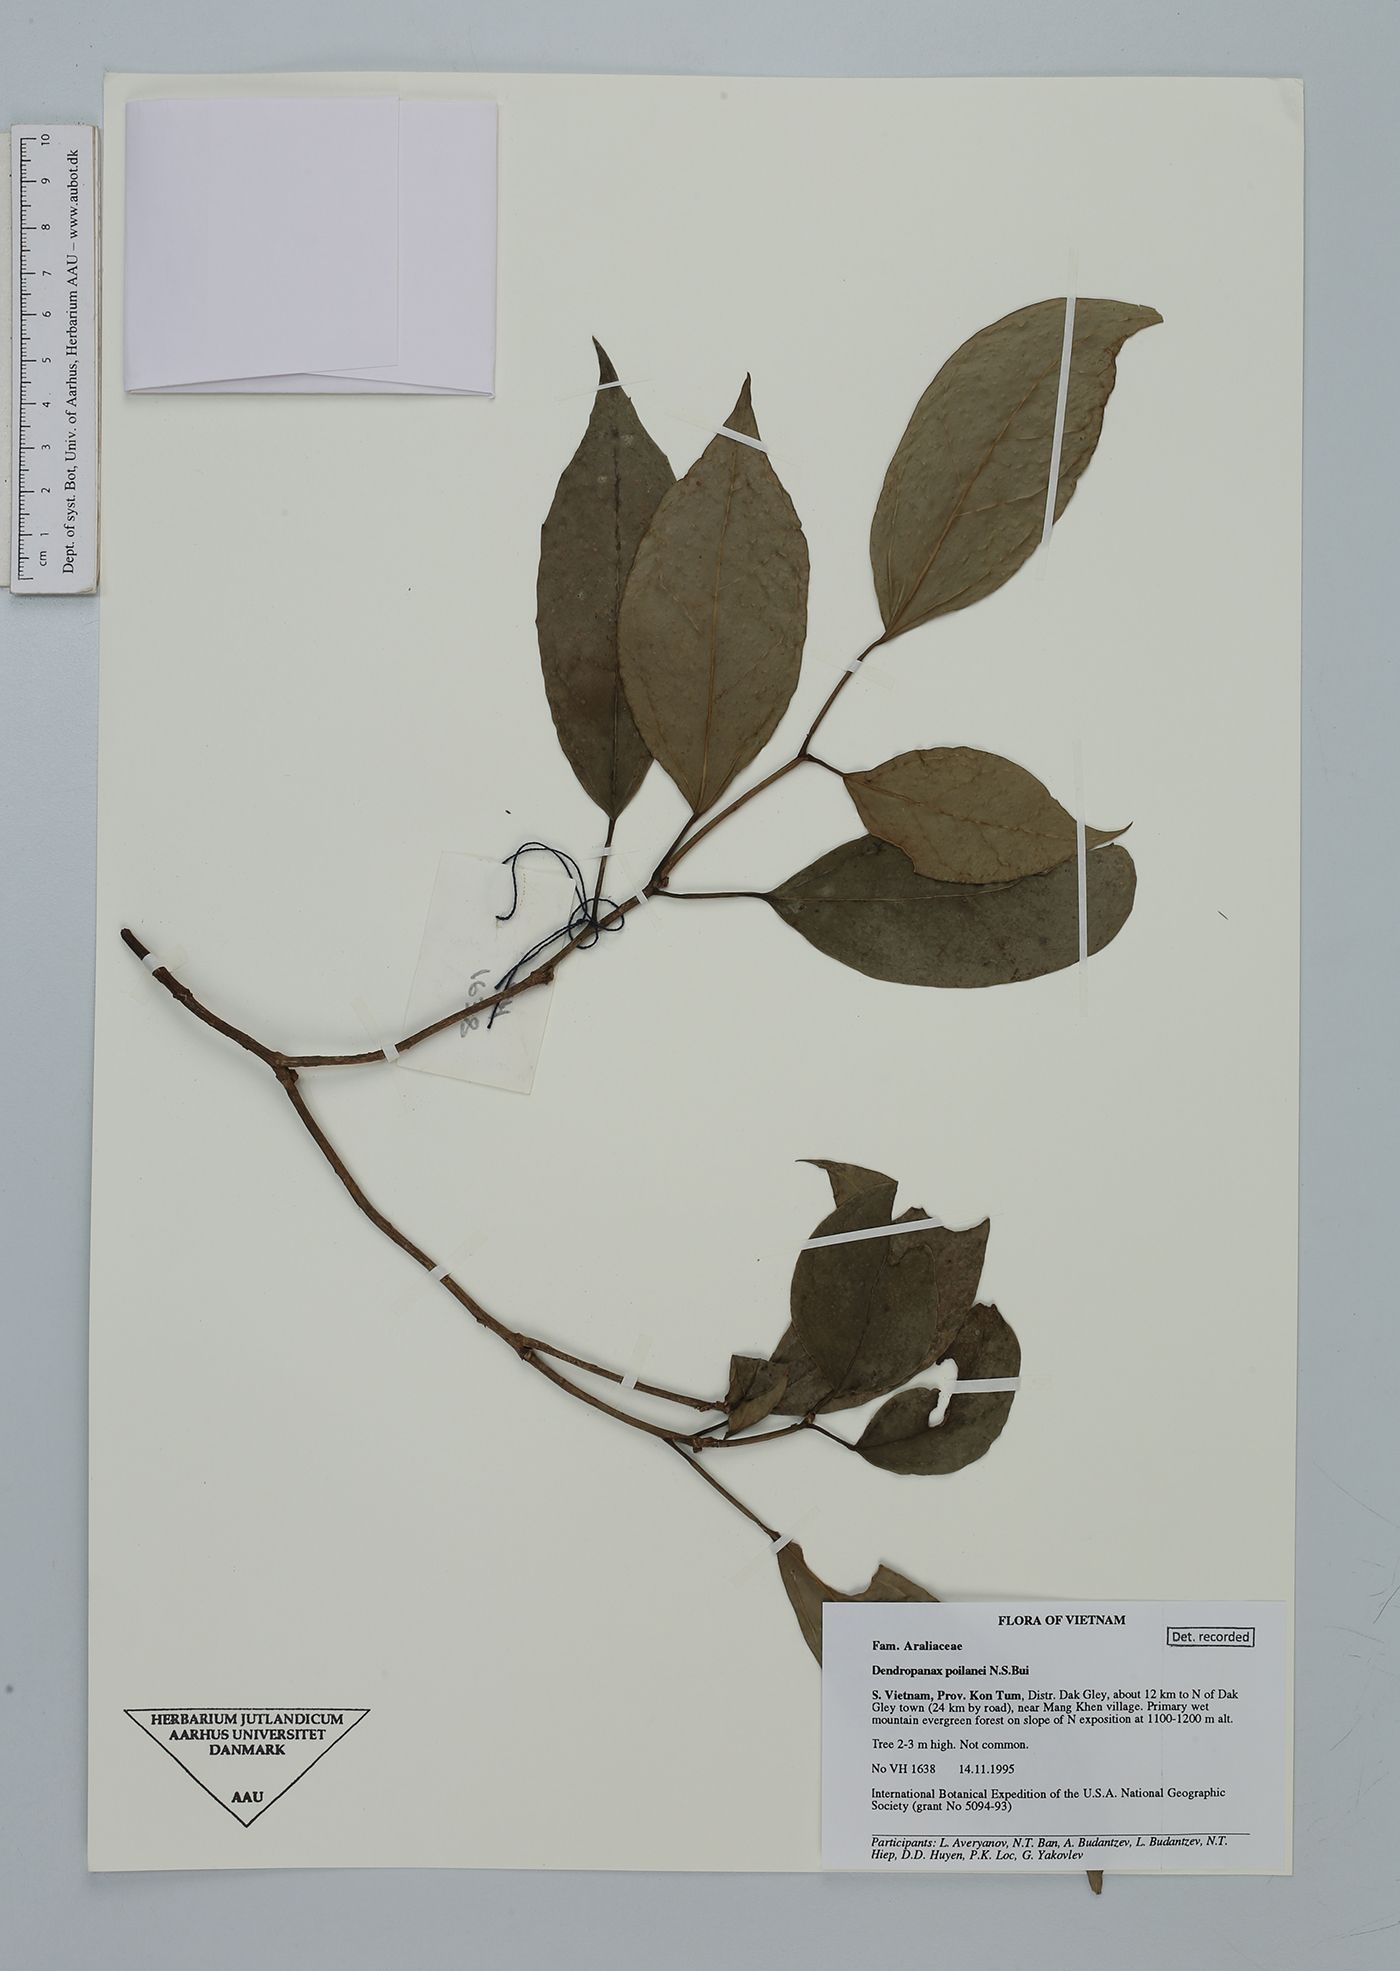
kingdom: Plantae
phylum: Tracheophyta
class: Magnoliopsida
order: Apiales
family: Araliaceae
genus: Dendropanax
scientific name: Dendropanax poilanei
